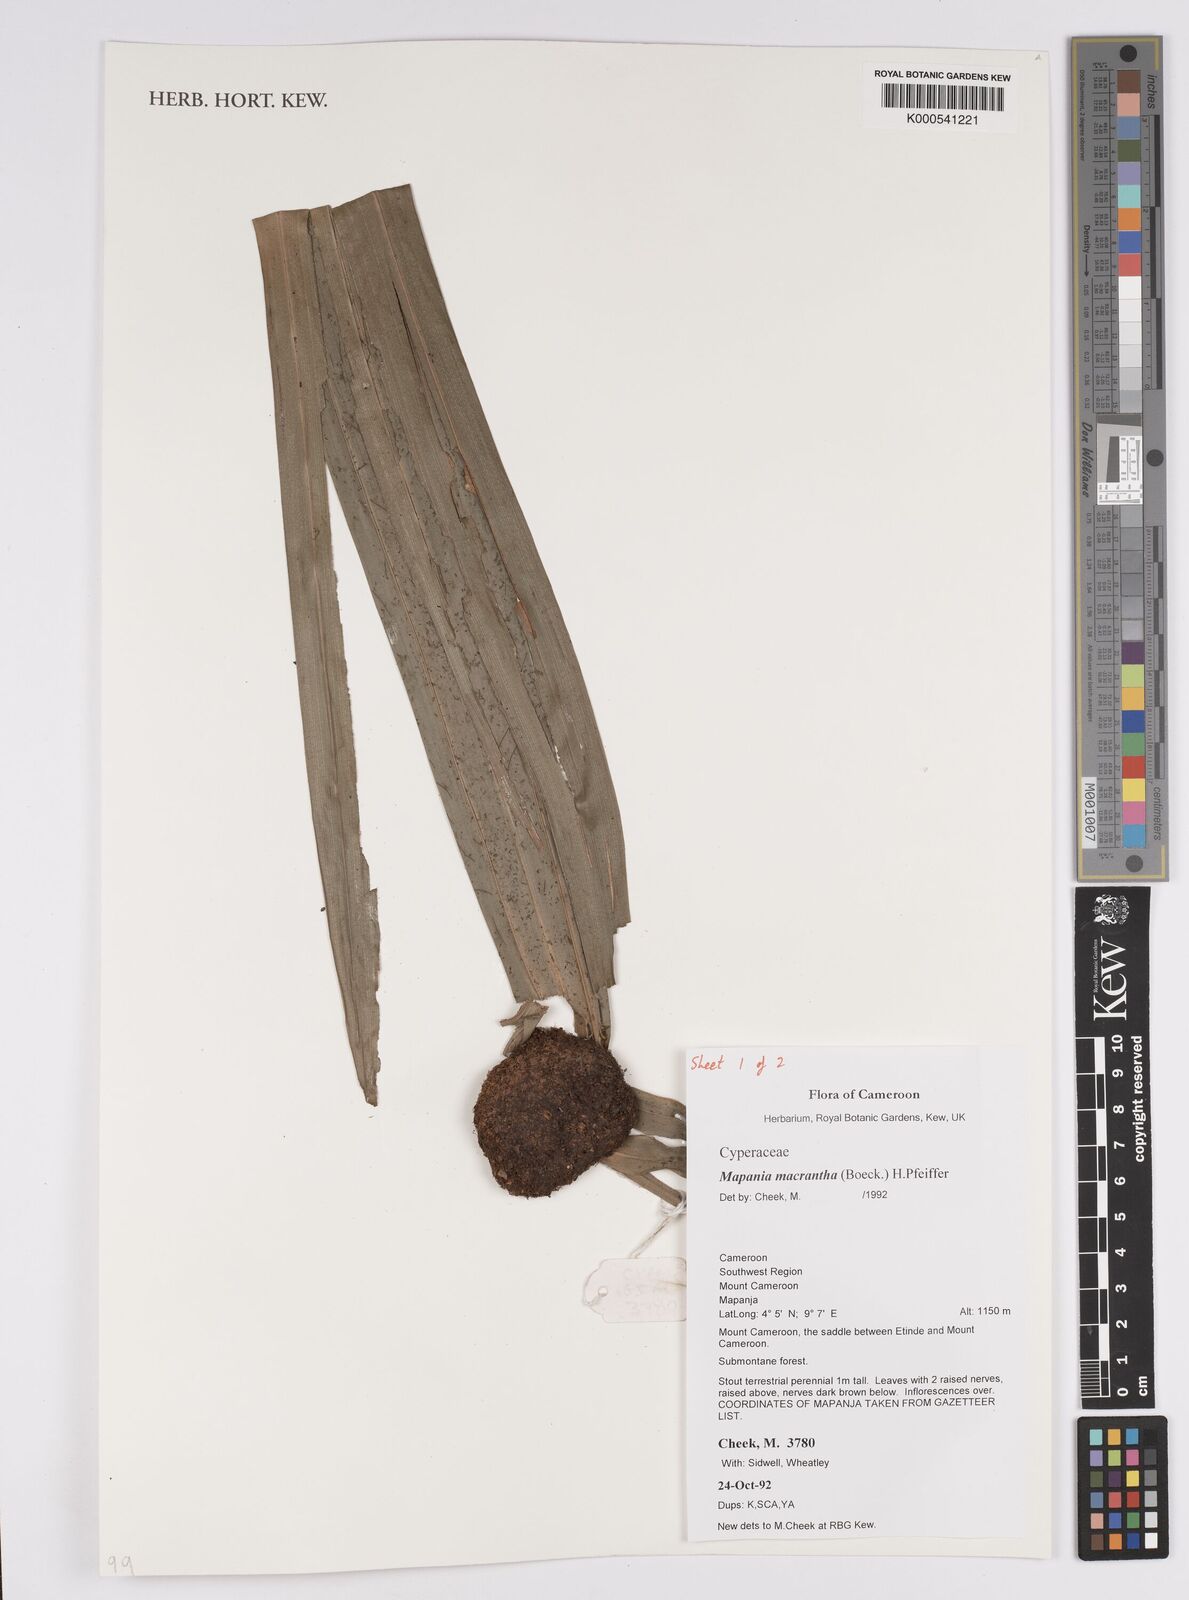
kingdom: Plantae
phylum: Tracheophyta
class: Liliopsida
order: Poales
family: Cyperaceae
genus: Mapania
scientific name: Mapania macrantha
